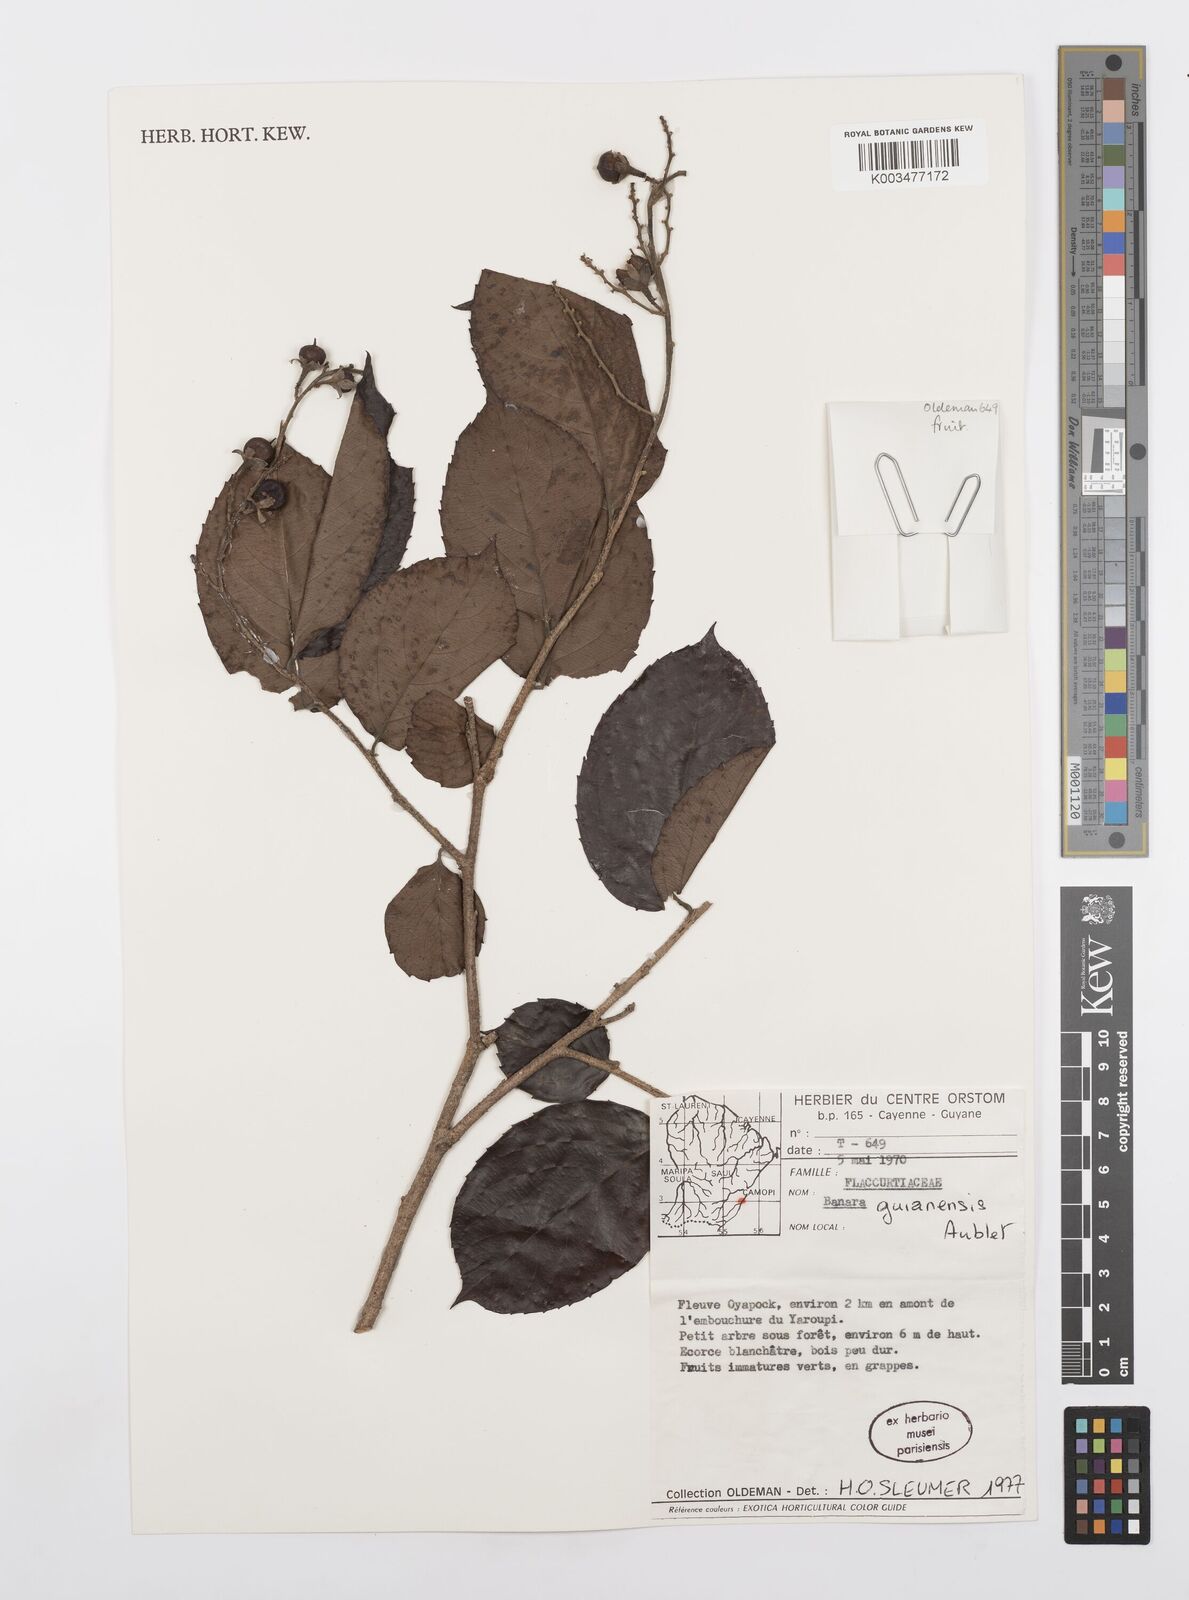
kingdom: Plantae
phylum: Tracheophyta
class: Magnoliopsida
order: Malpighiales
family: Salicaceae
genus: Banara
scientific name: Banara guianensis
